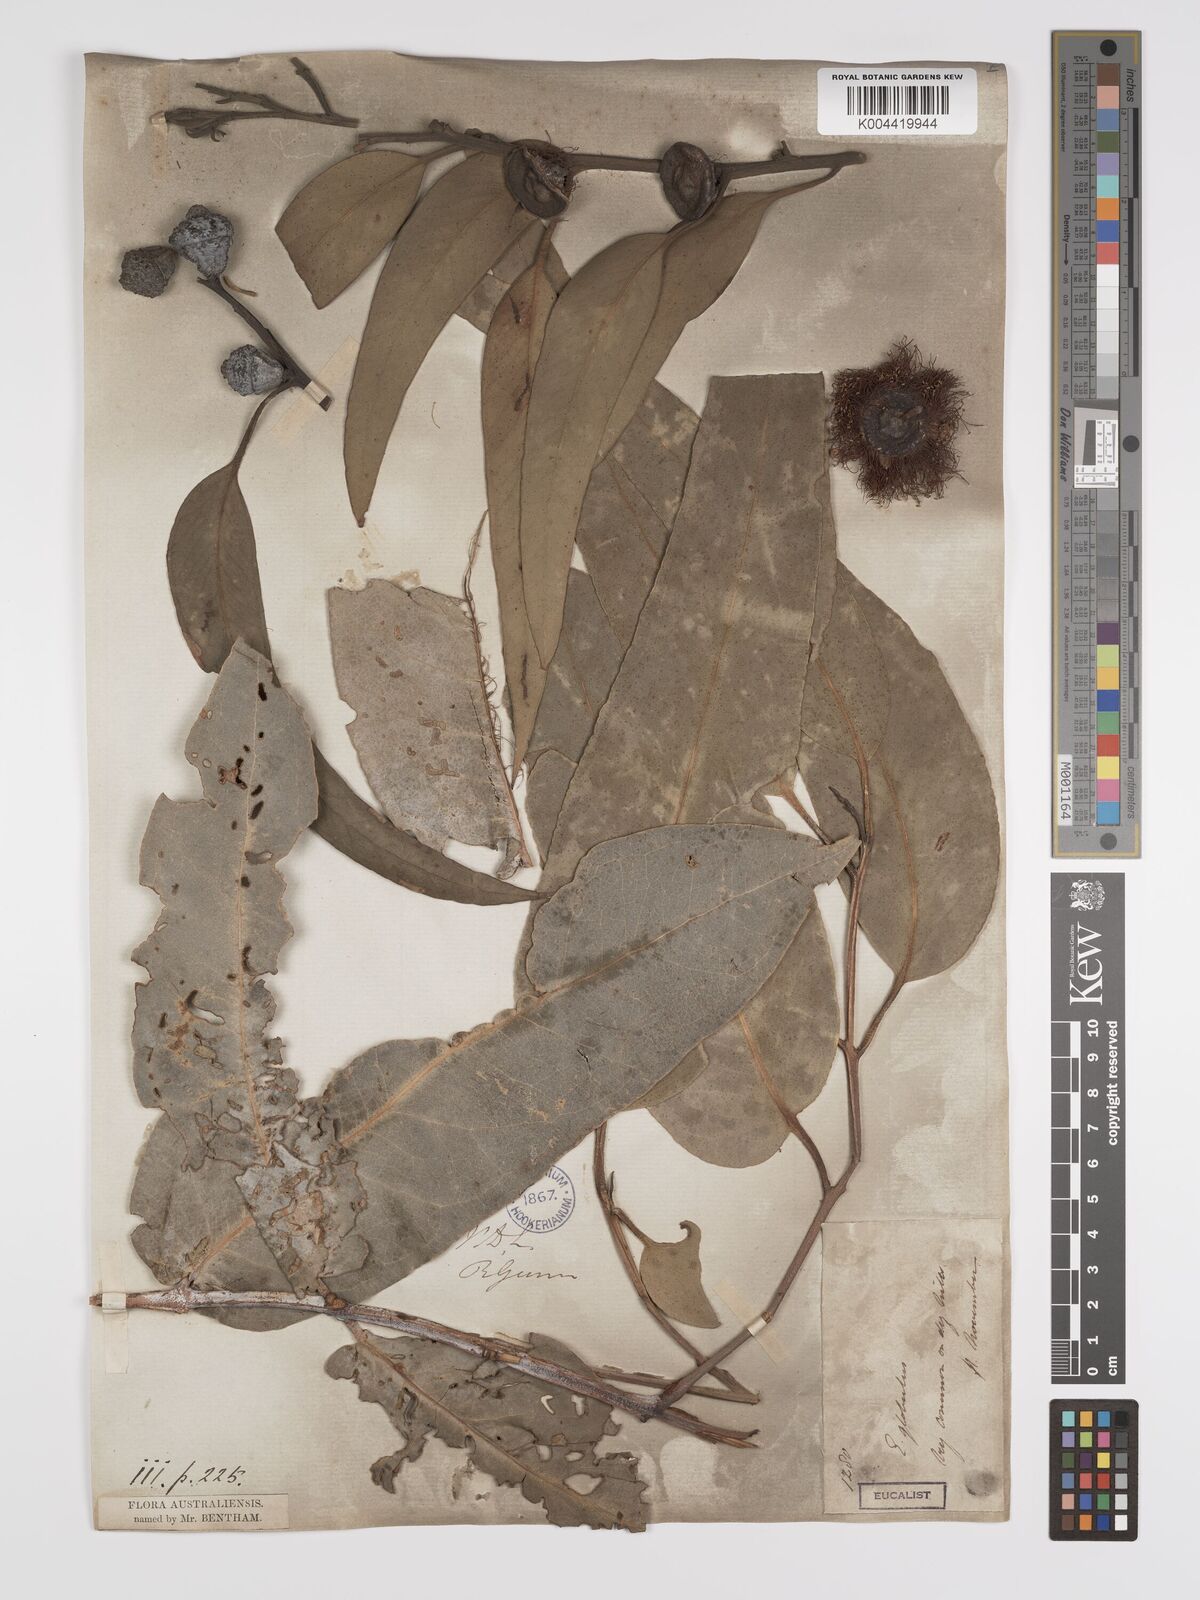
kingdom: Plantae
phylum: Tracheophyta
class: Magnoliopsida
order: Myrtales
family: Myrtaceae
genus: Eucalyptus
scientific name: Eucalyptus globulus
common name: Southern blue-gum
